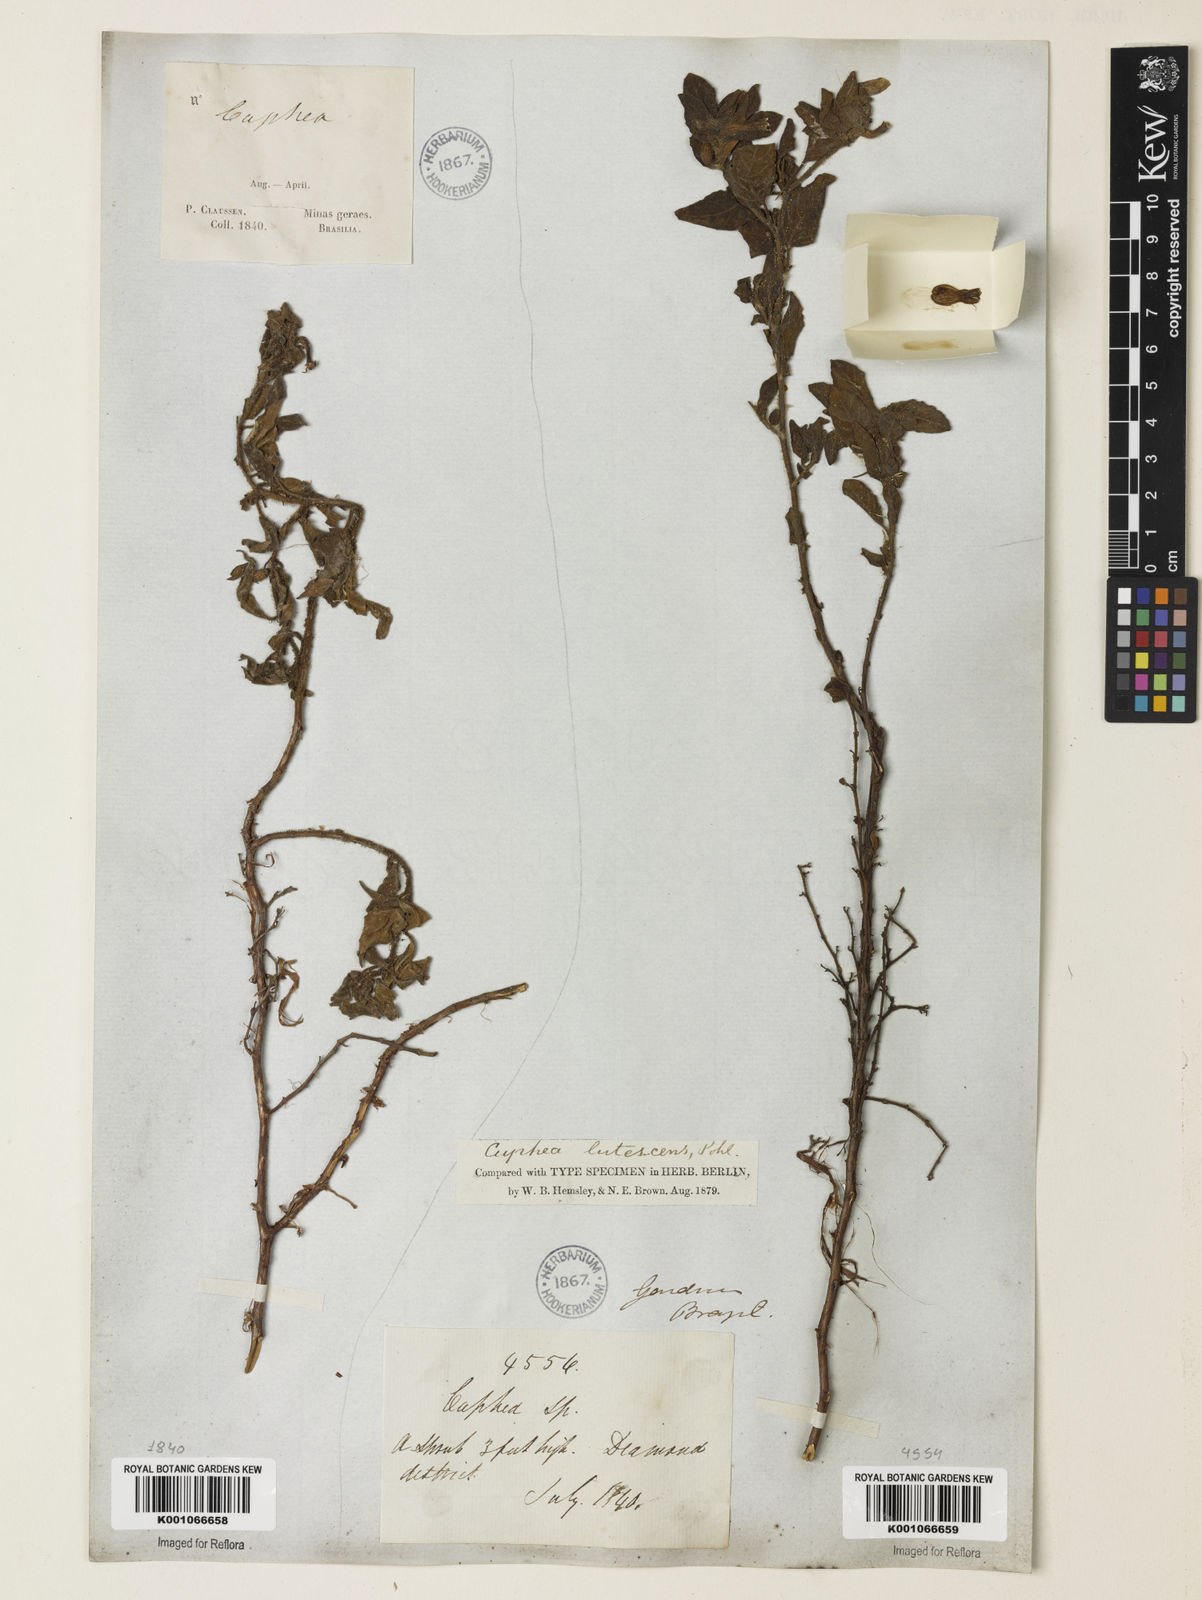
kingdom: Plantae
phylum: Tracheophyta
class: Magnoliopsida
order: Myrtales
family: Lythraceae
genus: Cuphea
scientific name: Cuphea lutescens
